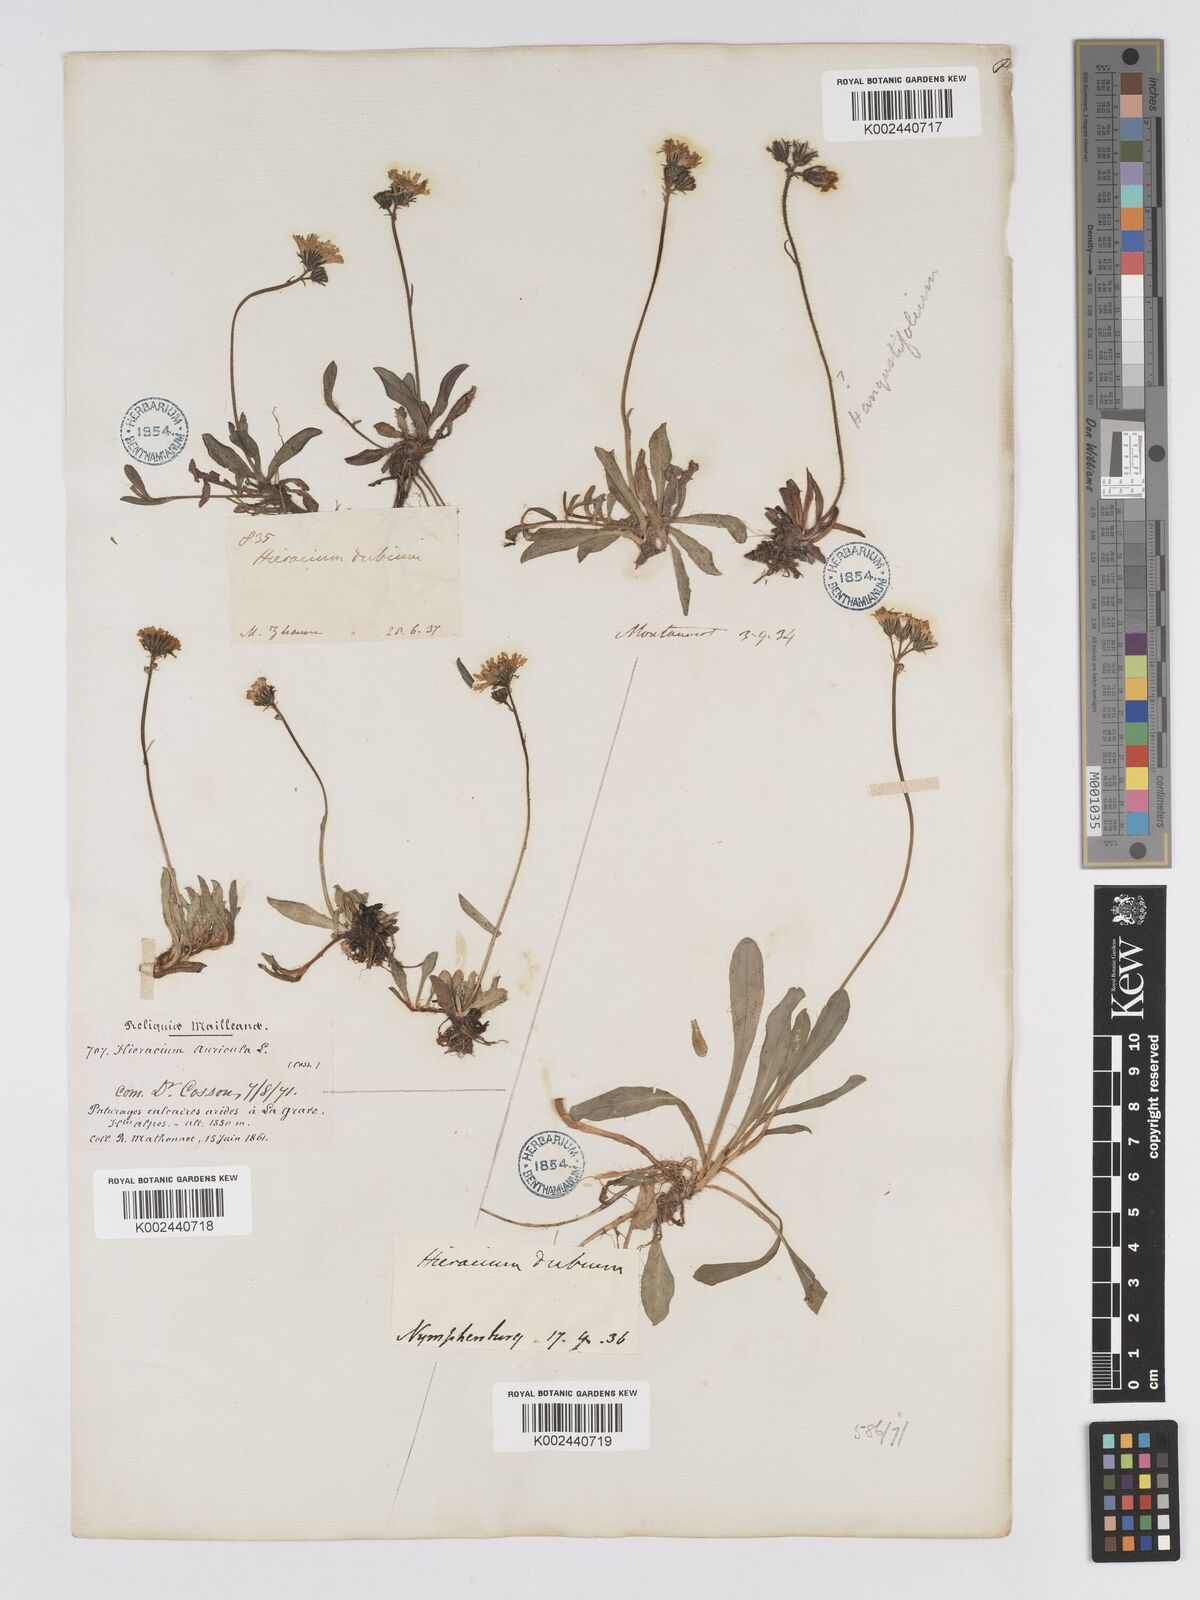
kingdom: Plantae
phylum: Tracheophyta
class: Magnoliopsida
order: Asterales
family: Asteraceae
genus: Pilosella
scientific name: Pilosella floribunda
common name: Glaucous hawkweed
